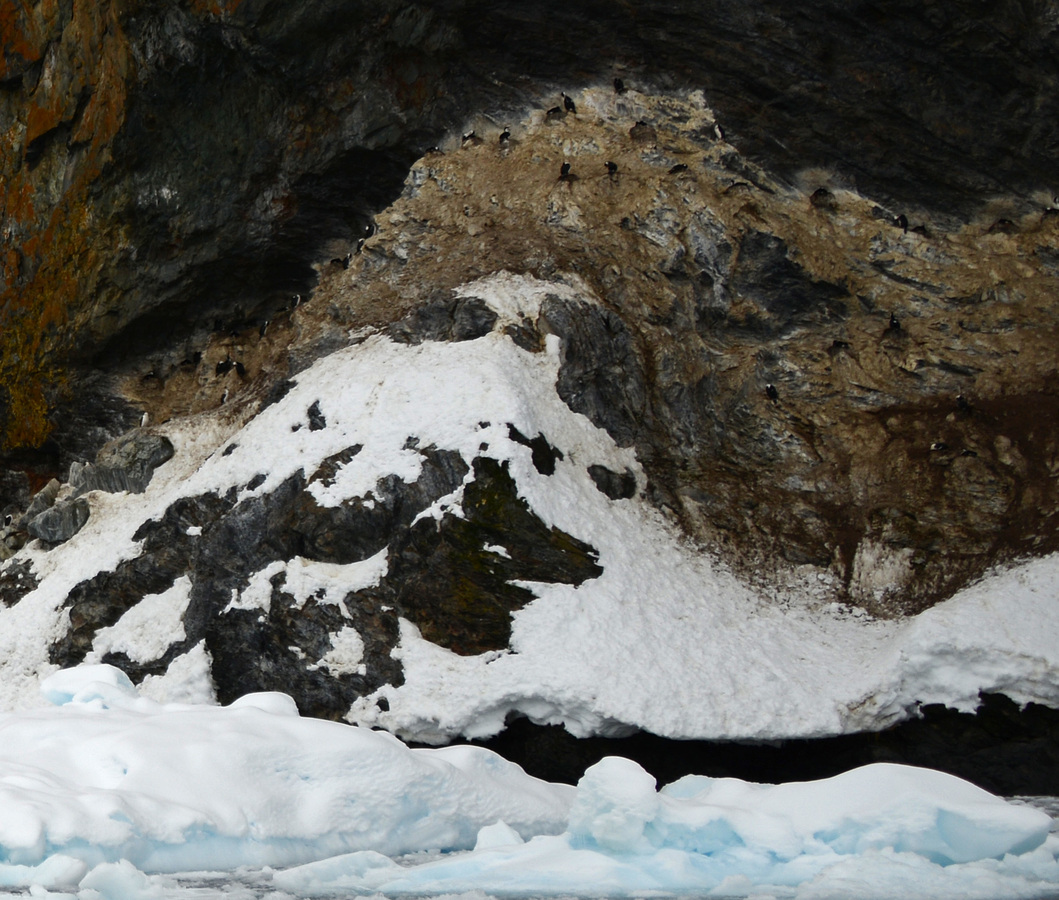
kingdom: Animalia
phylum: Chordata
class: Aves
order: Suliformes
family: Phalacrocoracidae
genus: Leucocarbo
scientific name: Leucocarbo atriceps
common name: Antarctic shag
